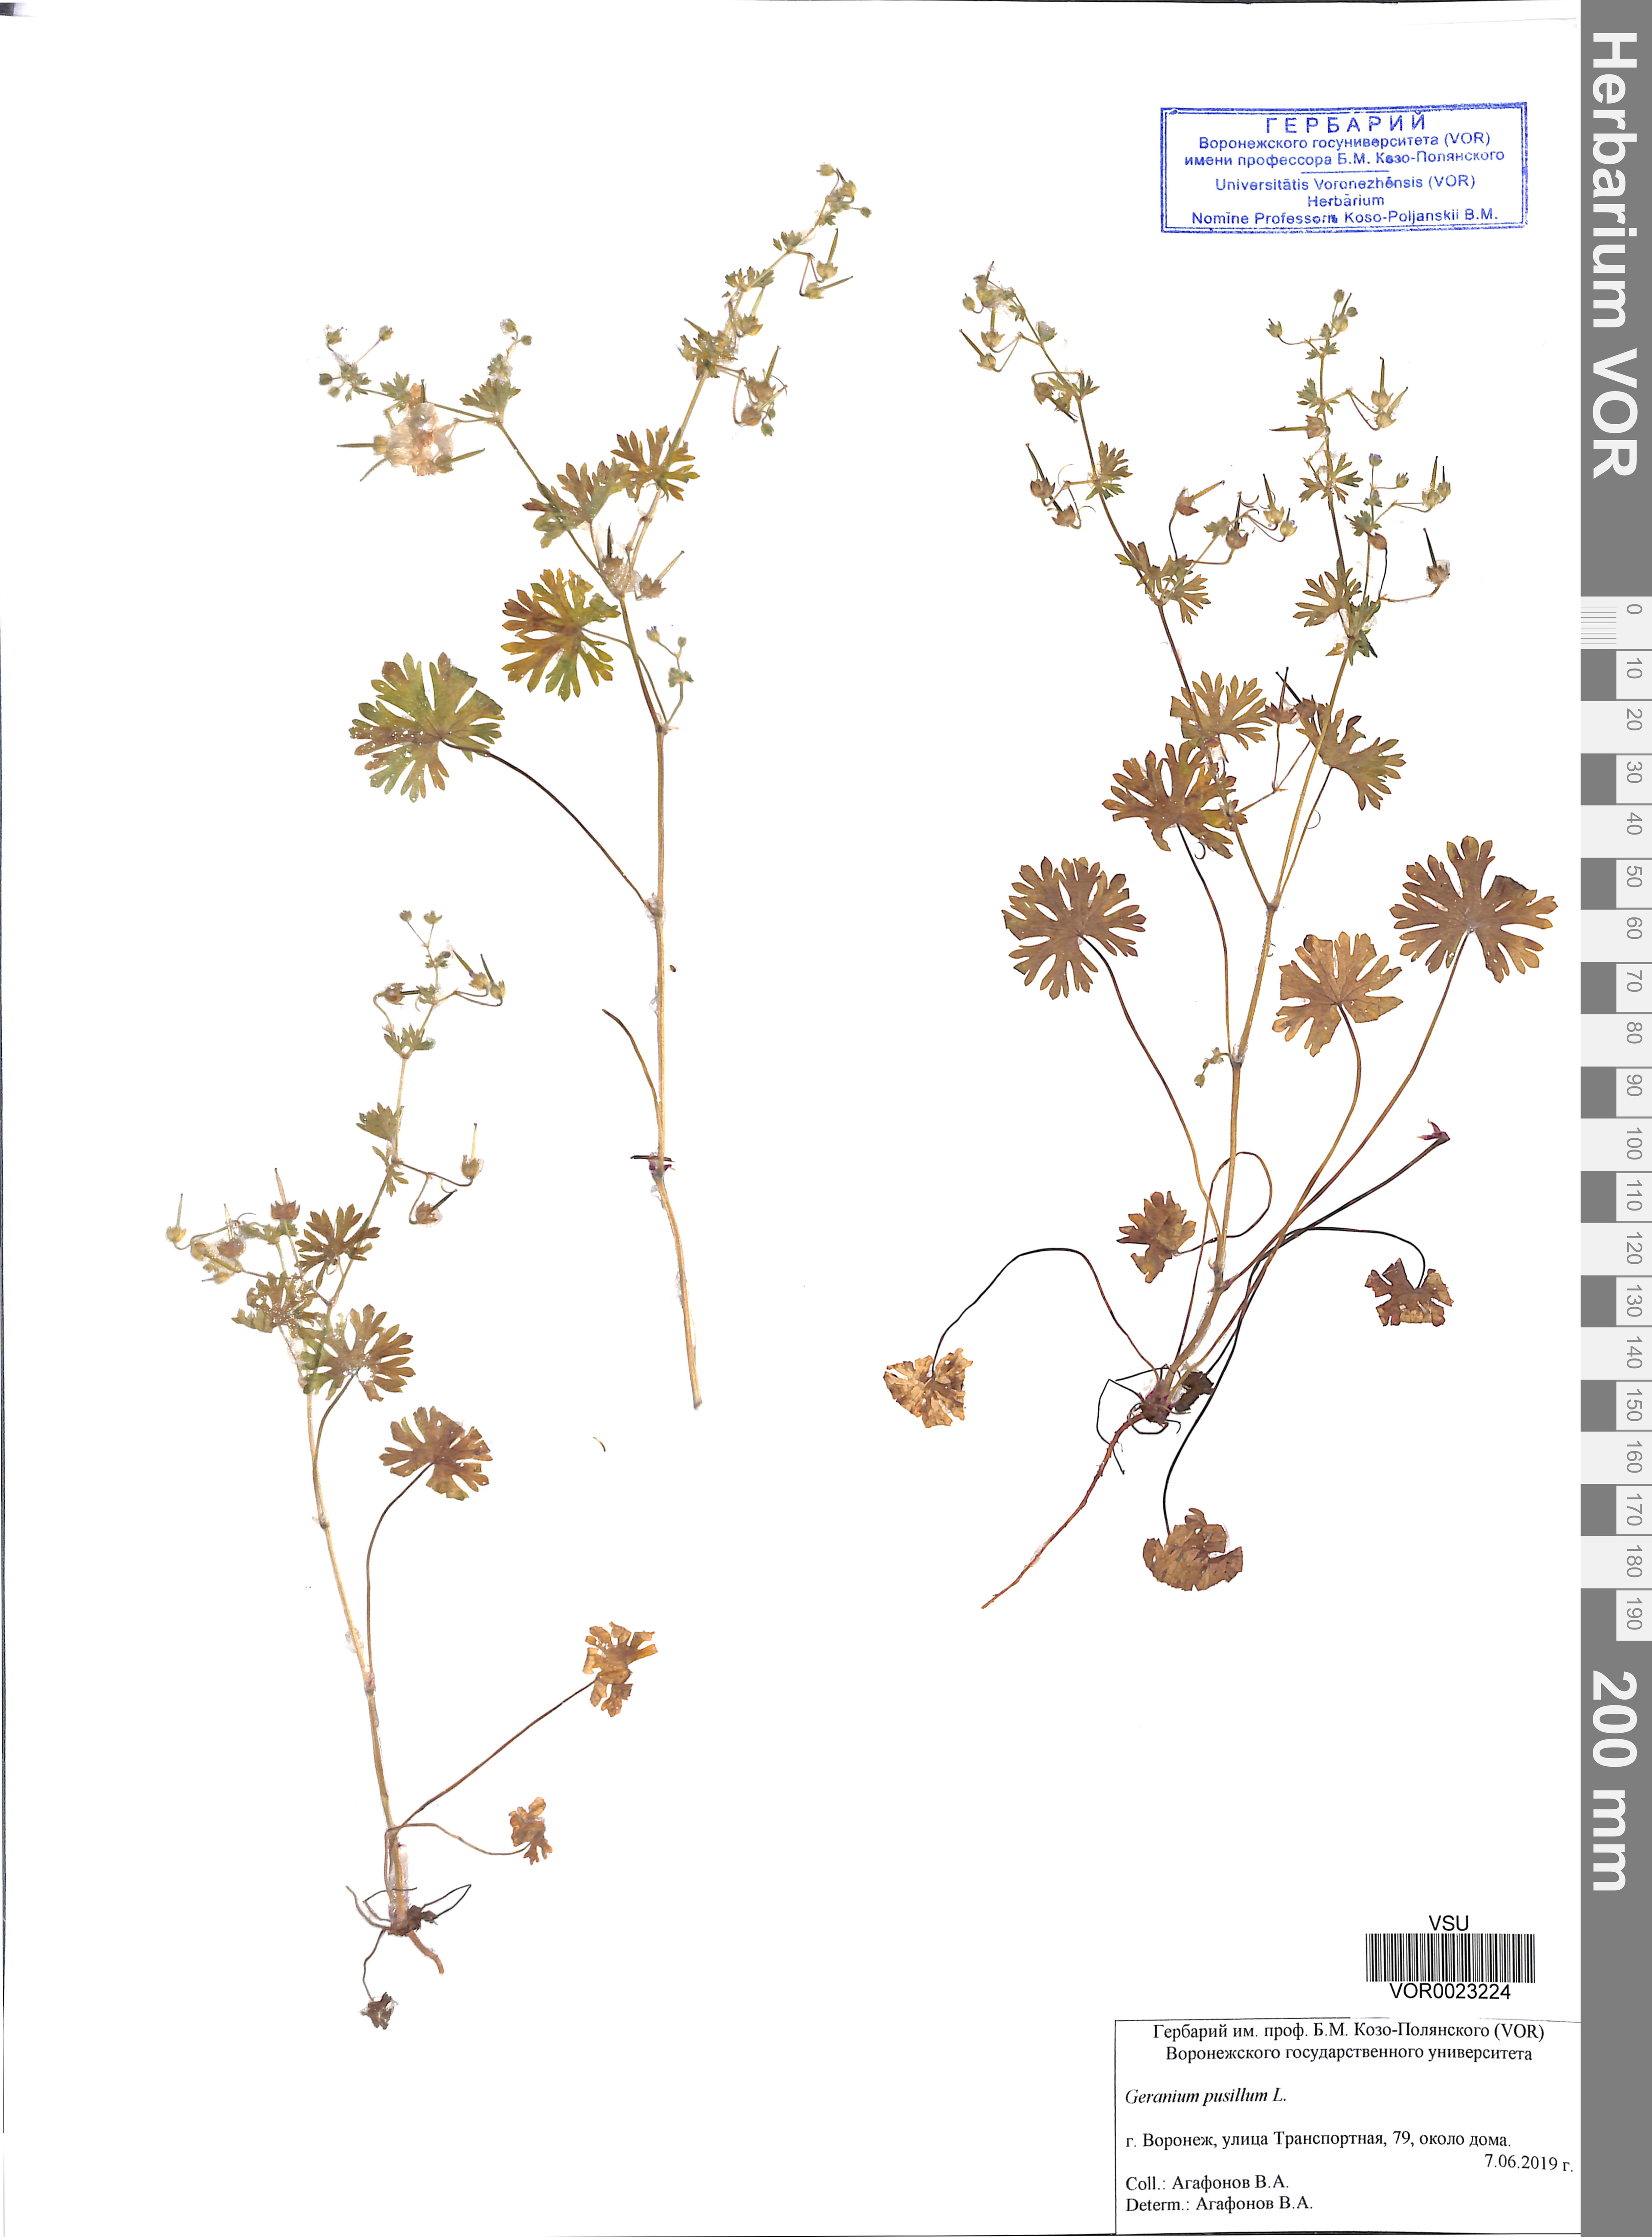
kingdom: Plantae
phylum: Tracheophyta
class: Magnoliopsida
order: Geraniales
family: Geraniaceae
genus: Geranium
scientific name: Geranium pusillum
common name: Small geranium
